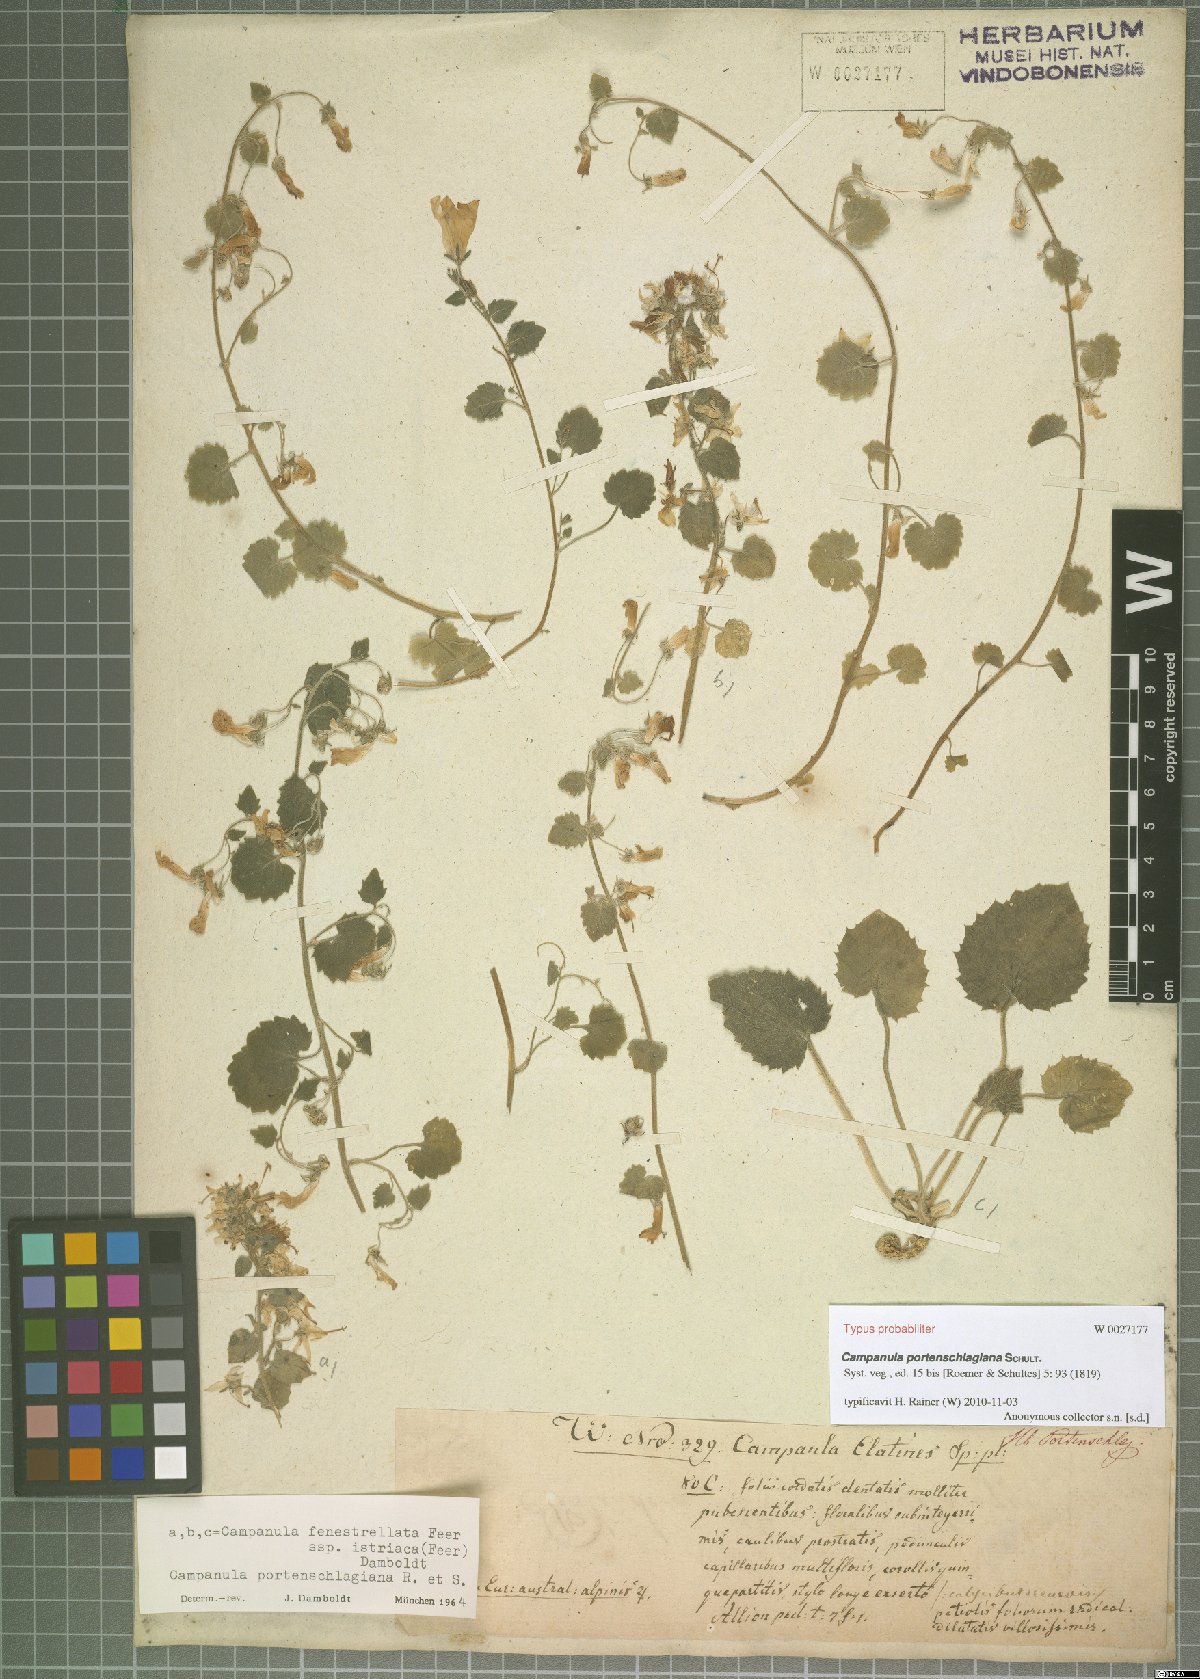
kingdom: Plantae
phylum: Tracheophyta
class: Magnoliopsida
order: Asterales
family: Campanulaceae
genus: Campanula
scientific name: Campanula portenschlagiana
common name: Adria bellflower
